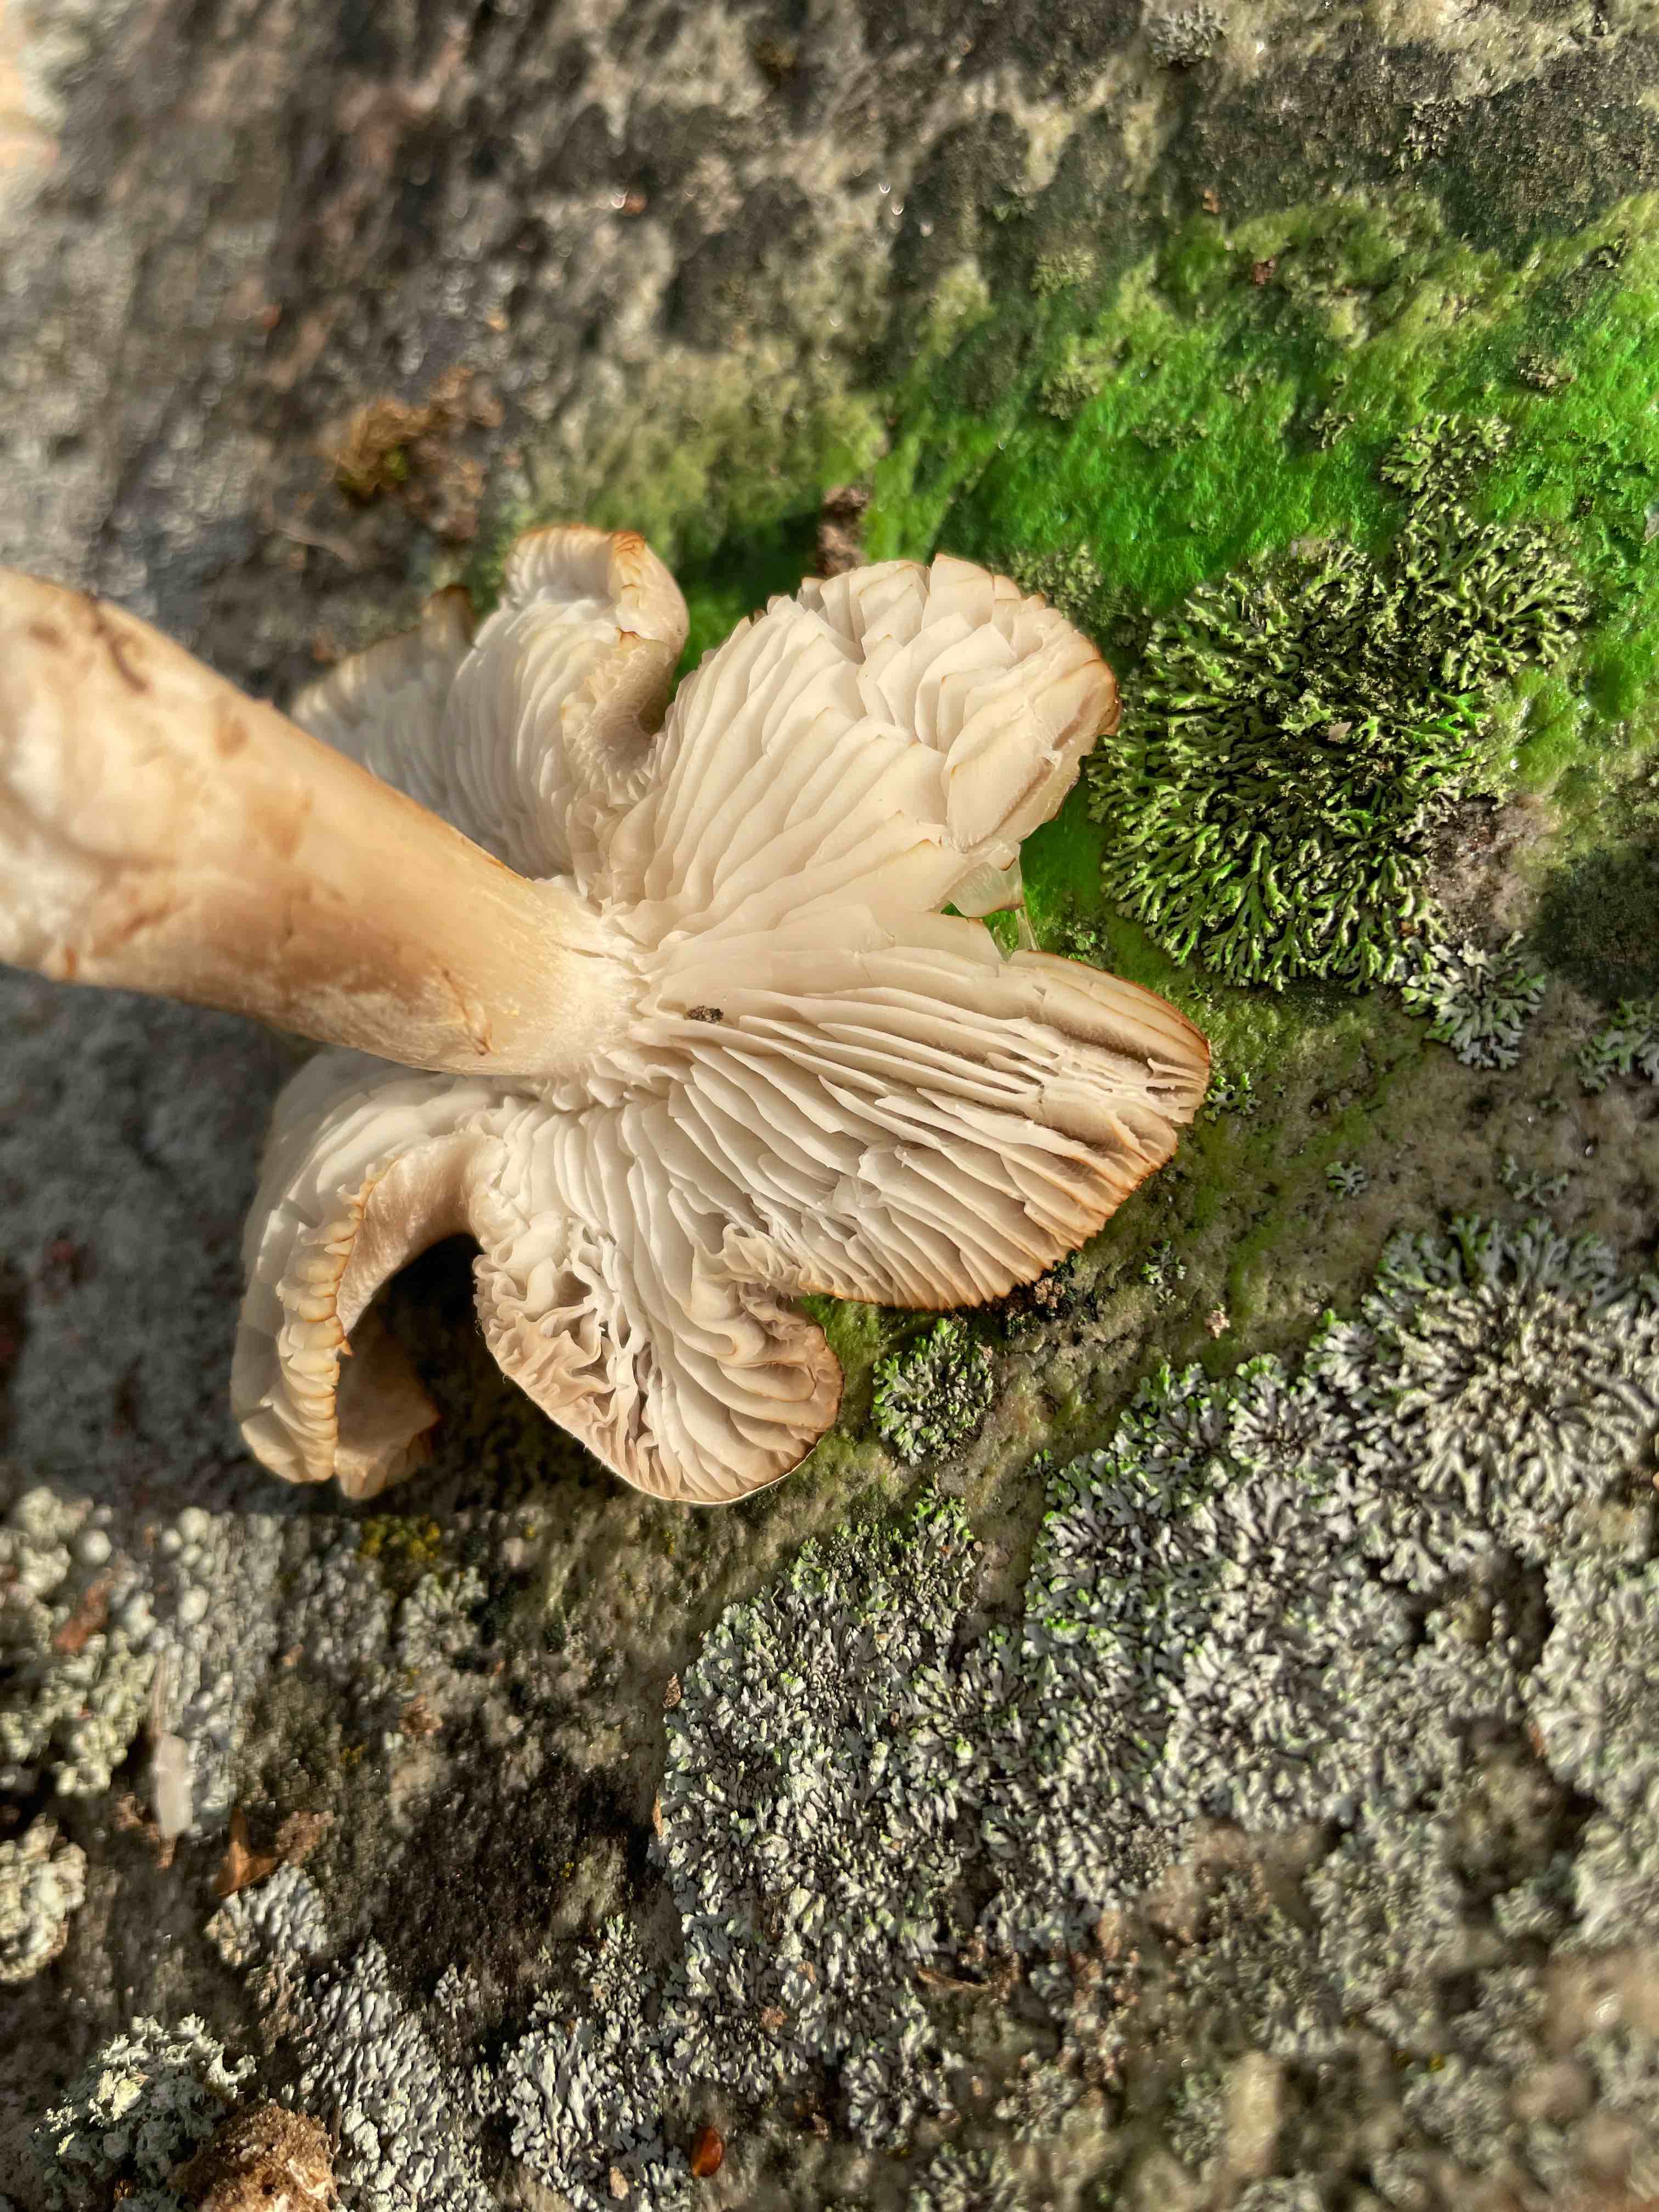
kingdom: Fungi
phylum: Basidiomycota
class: Agaricomycetes
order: Agaricales
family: Tricholomataceae
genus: Tricholoma
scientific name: Tricholoma scalpturatum
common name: gulplettet ridderhat
